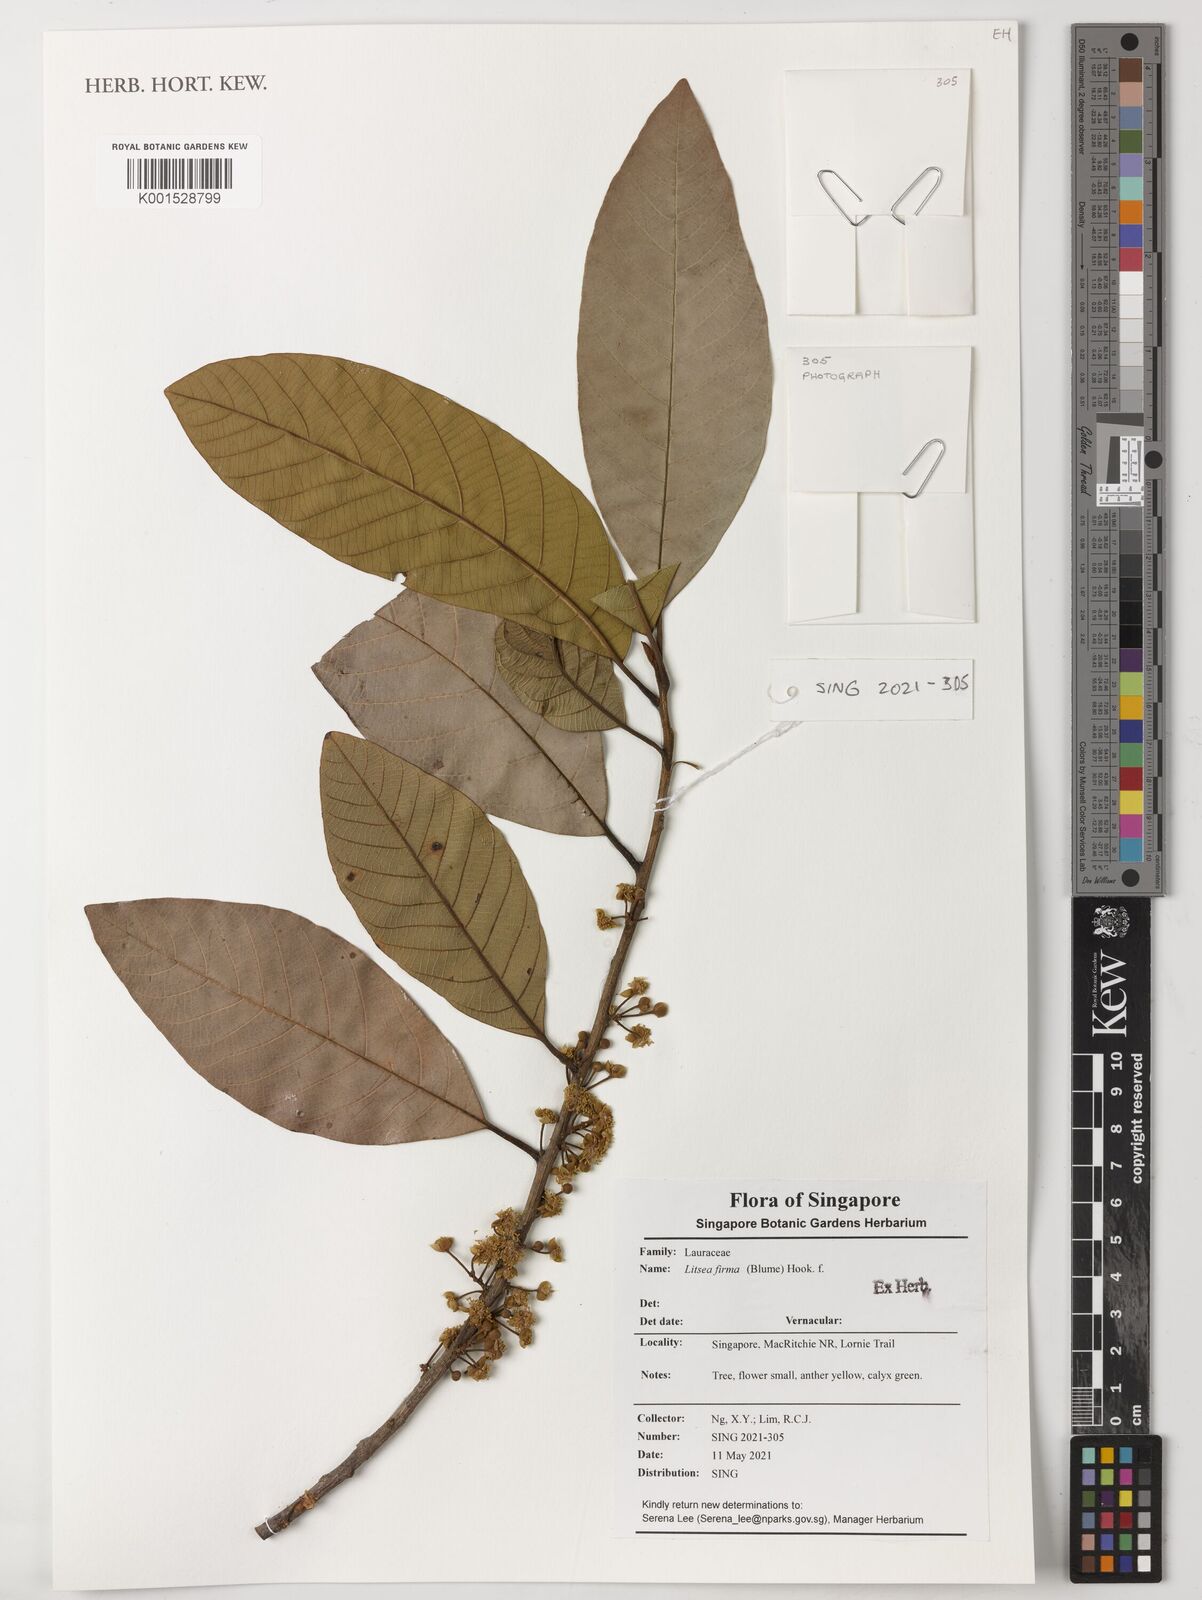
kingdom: Plantae
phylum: Tracheophyta
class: Magnoliopsida
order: Laurales
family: Lauraceae
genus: Litsea
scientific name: Litsea firma
